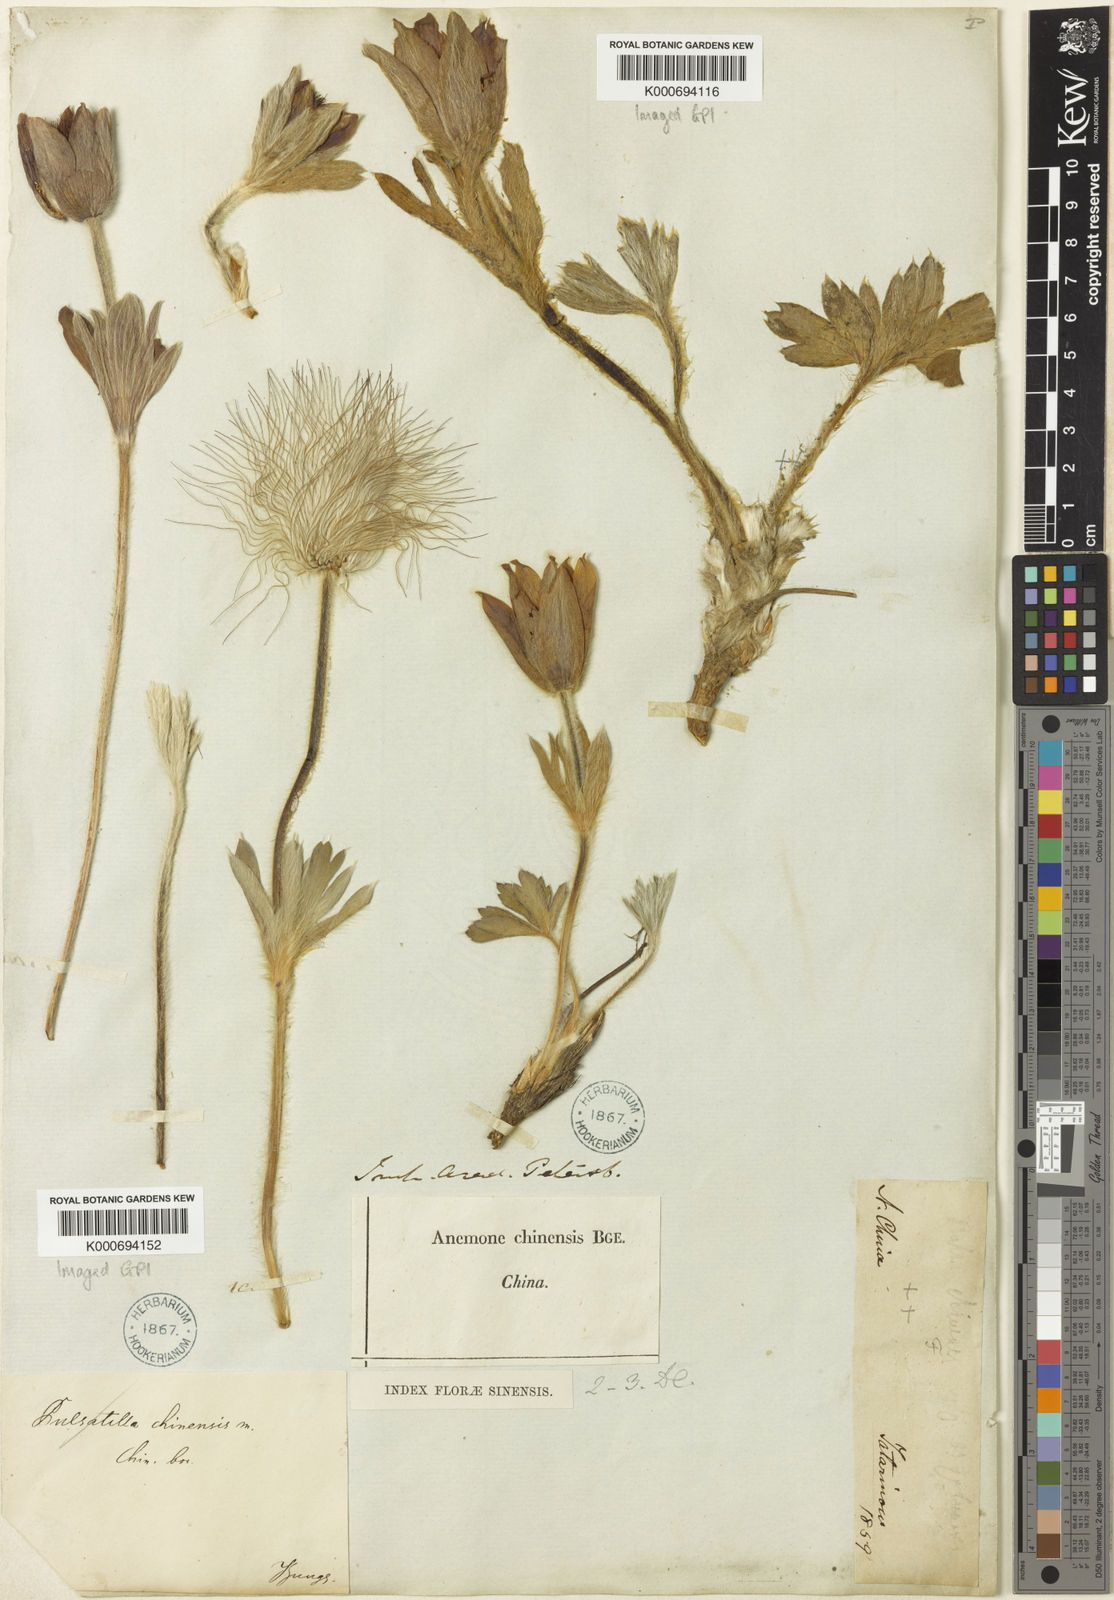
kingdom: Plantae
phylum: Tracheophyta
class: Magnoliopsida
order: Ranunculales
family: Ranunculaceae
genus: Pulsatilla
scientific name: Pulsatilla chinensis
